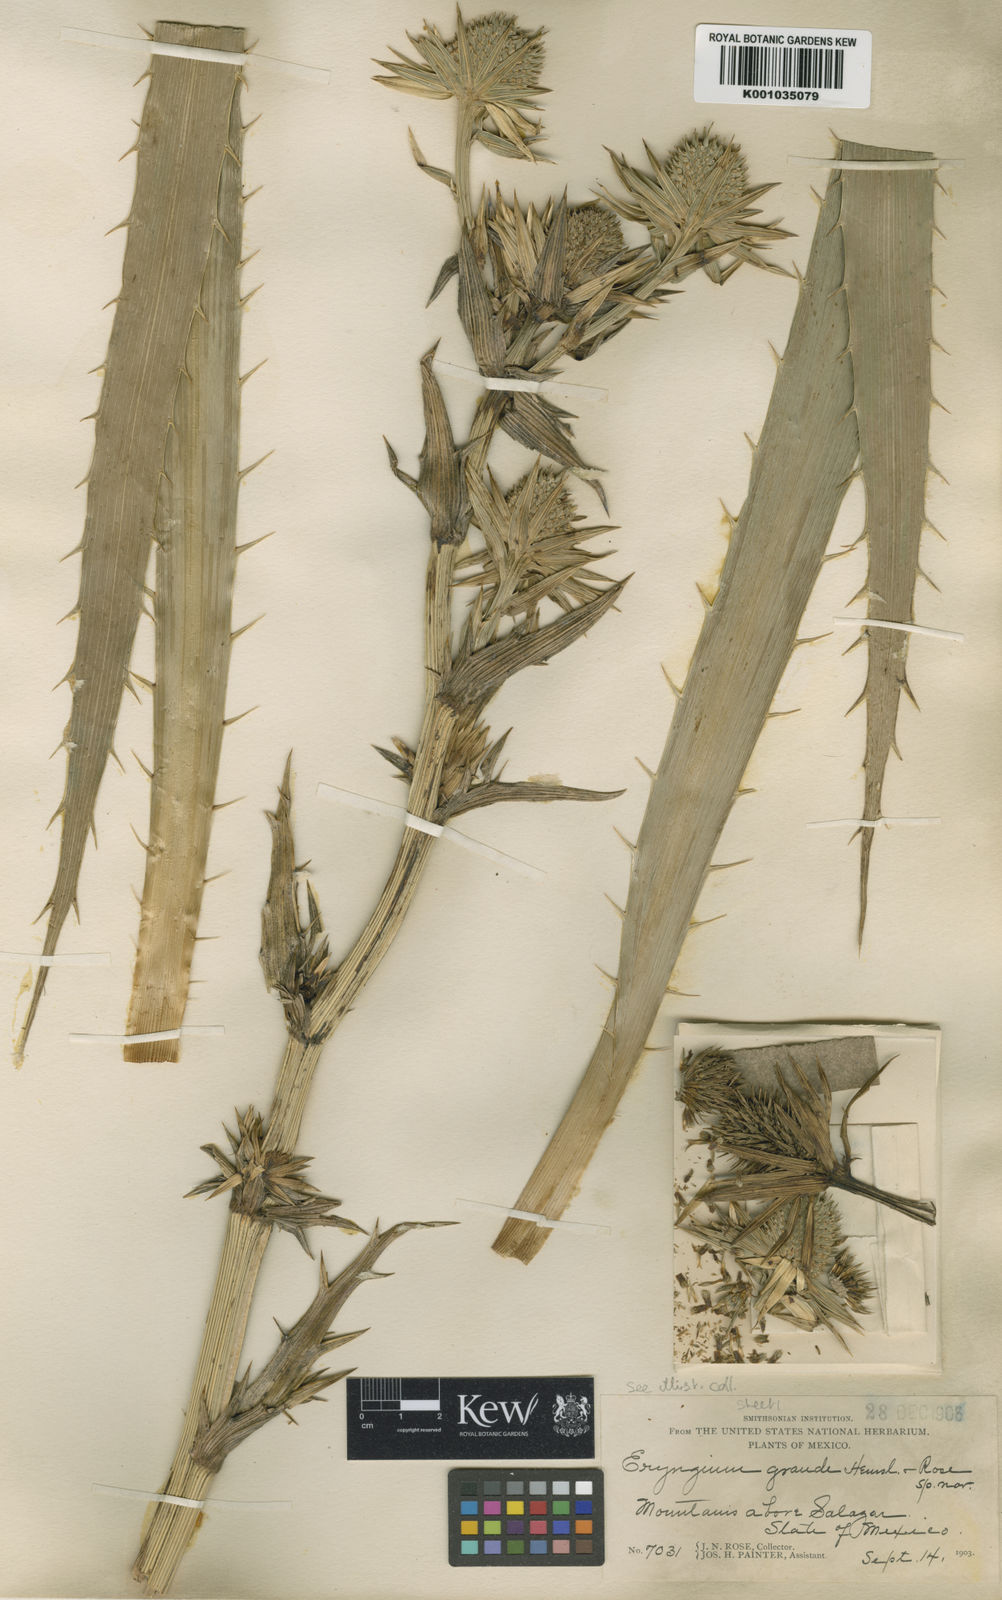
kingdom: Plantae
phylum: Tracheophyta
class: Magnoliopsida
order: Apiales
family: Apiaceae
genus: Eryngium
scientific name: Eryngium monocephalum
